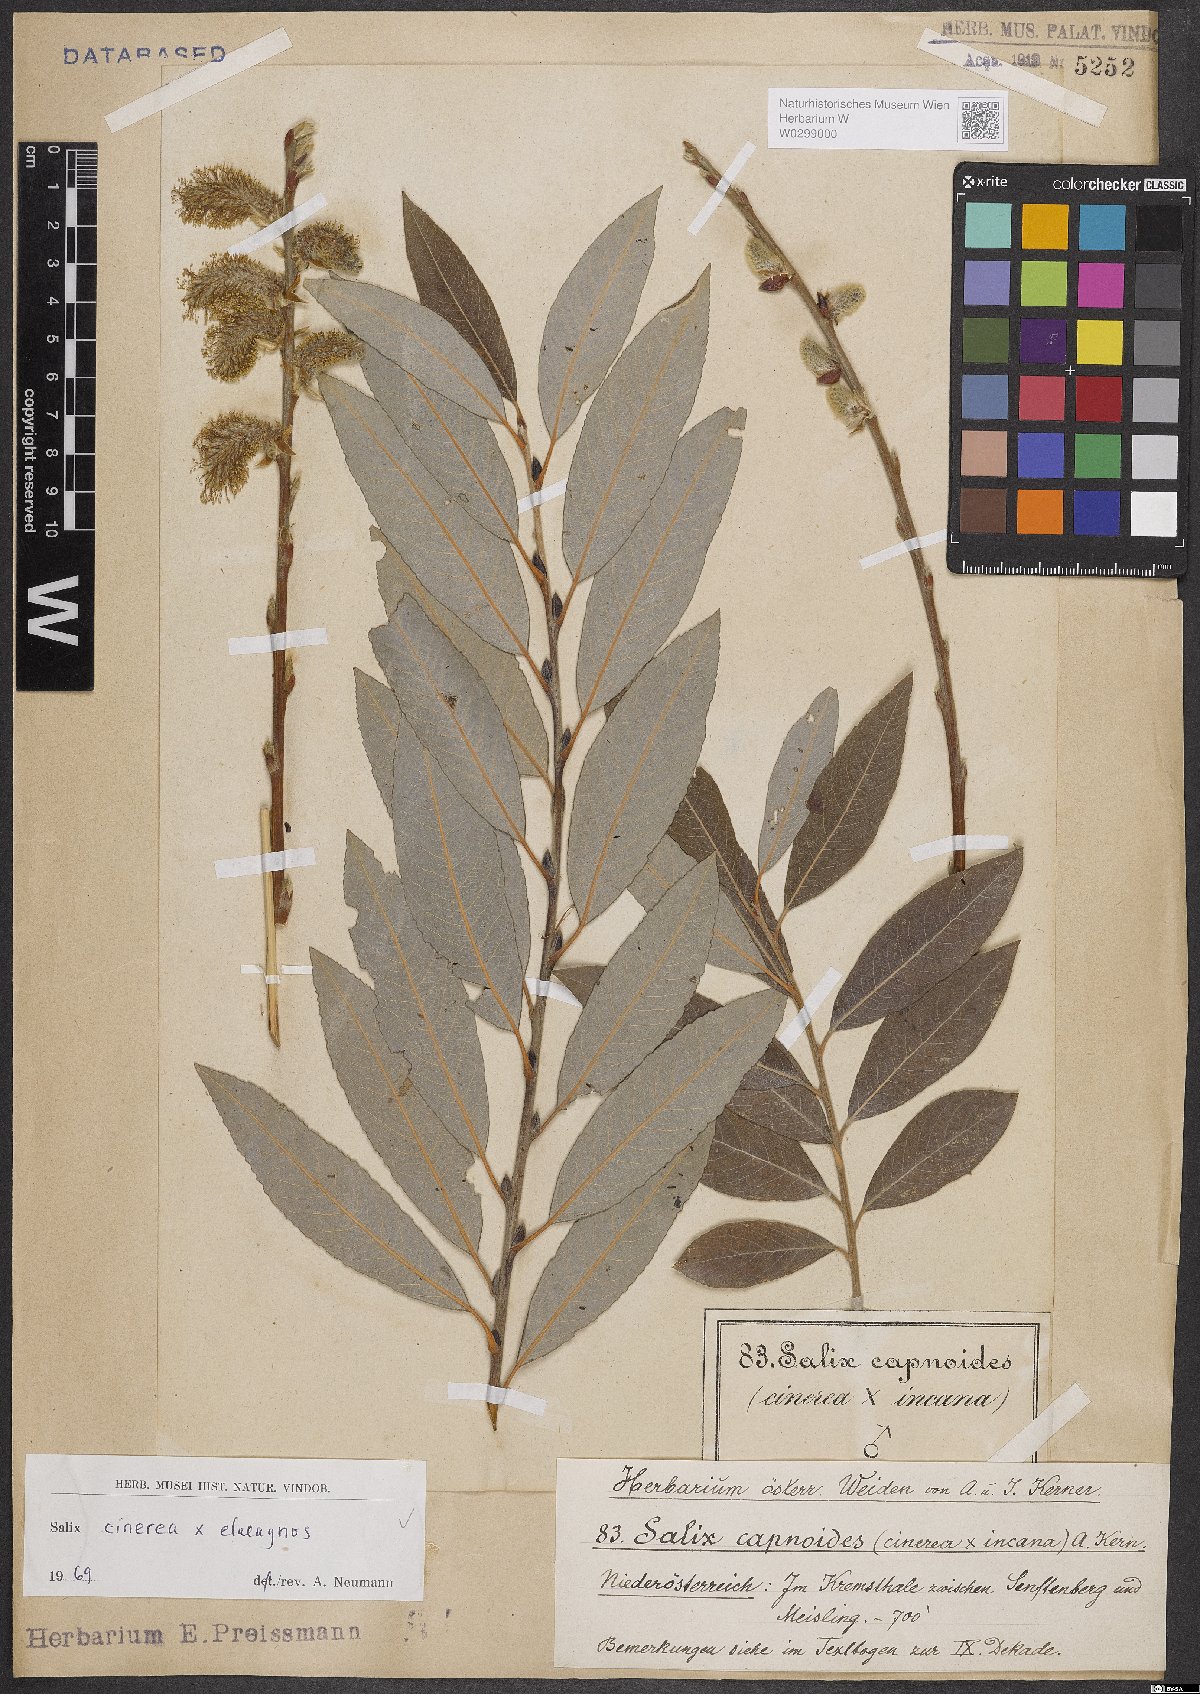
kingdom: Plantae
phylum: Tracheophyta
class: Magnoliopsida
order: Malpighiales
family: Salicaceae
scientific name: Salicaceae
